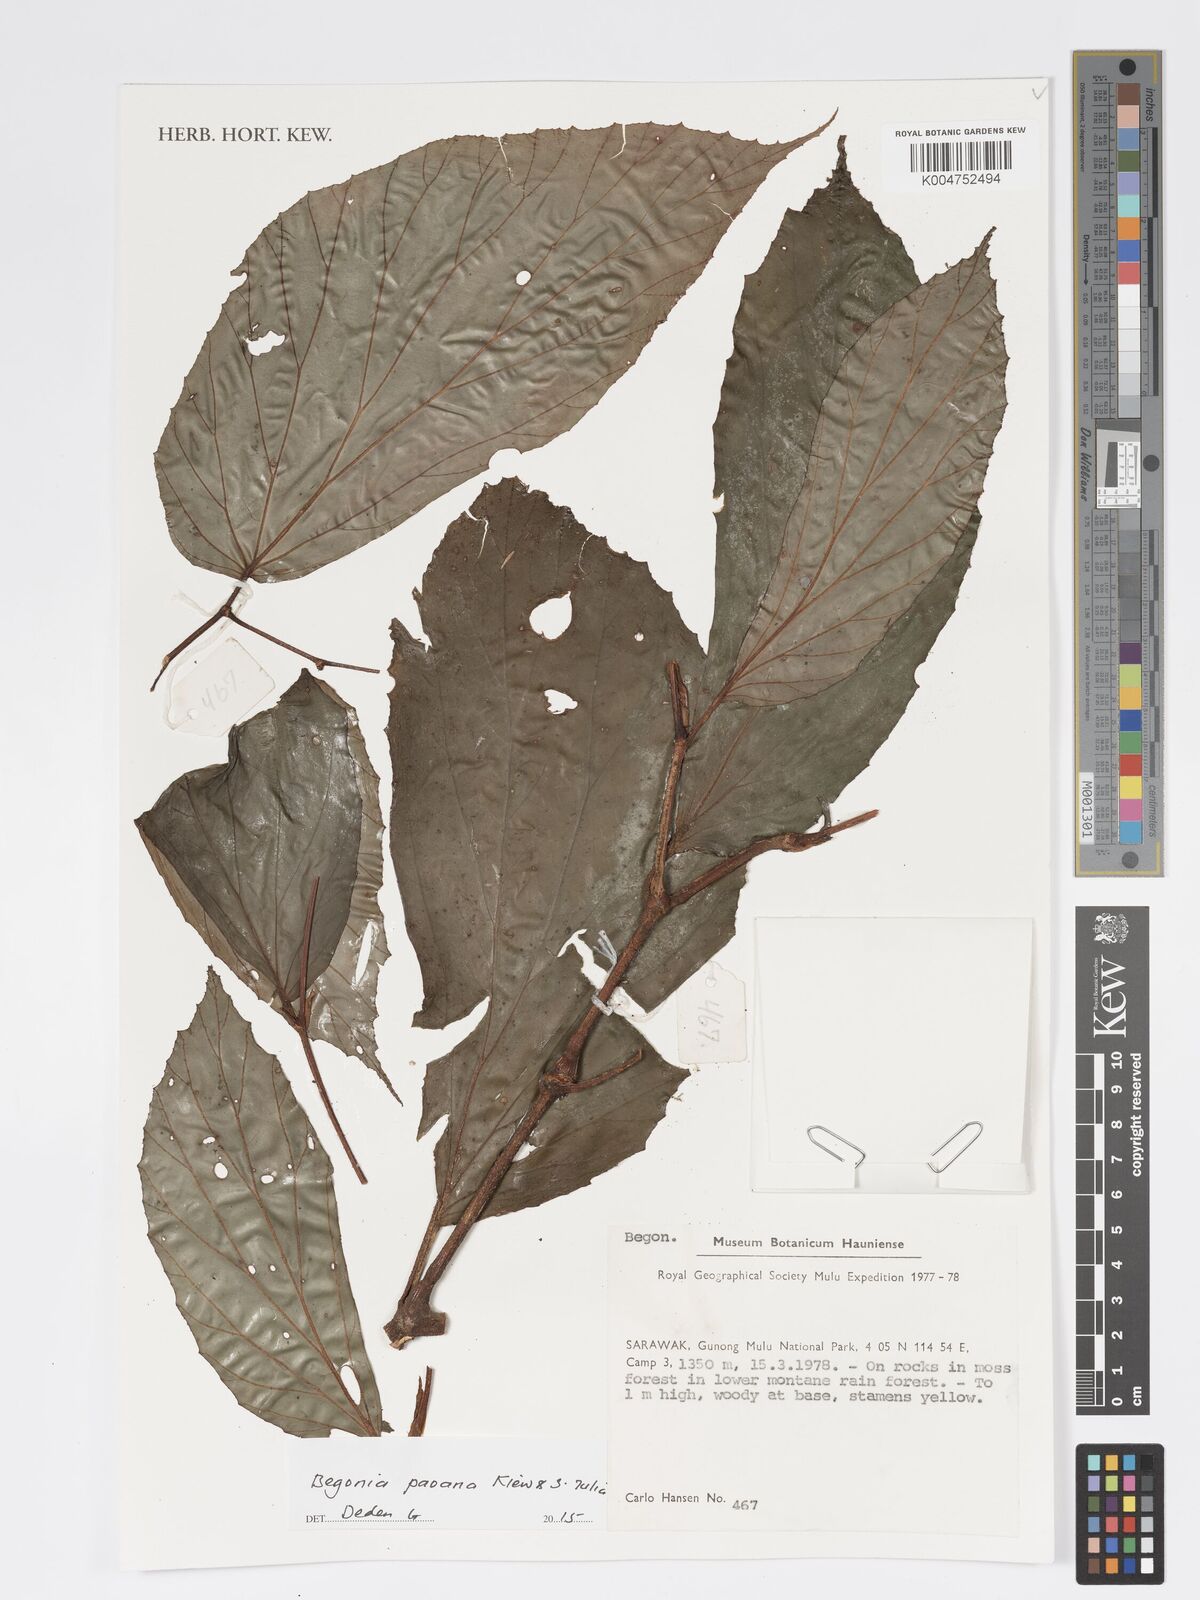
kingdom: Plantae
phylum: Tracheophyta
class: Magnoliopsida
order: Cucurbitales
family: Begoniaceae
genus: Begonia
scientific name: Begonia paoana
